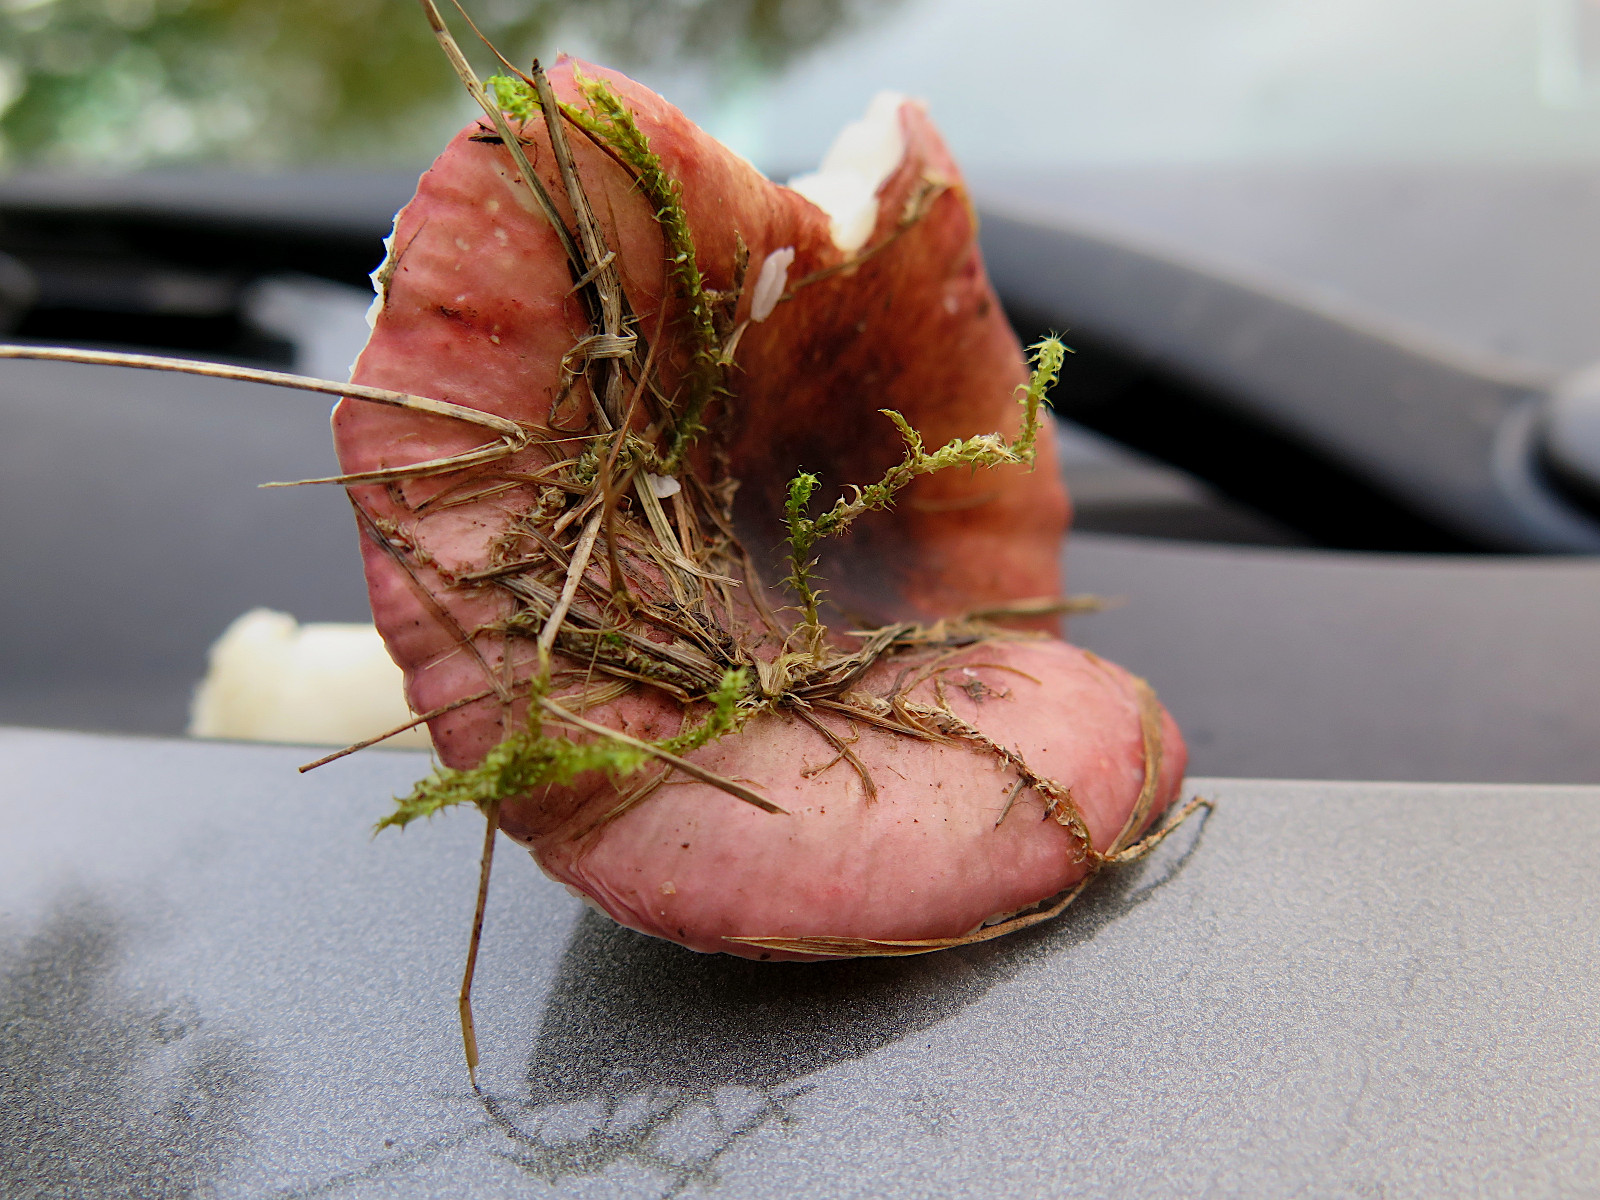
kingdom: Fungi
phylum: Basidiomycota
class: Agaricomycetes
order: Russulales
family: Russulaceae
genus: Russula
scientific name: Russula fragilis
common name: savbladet skørhat
